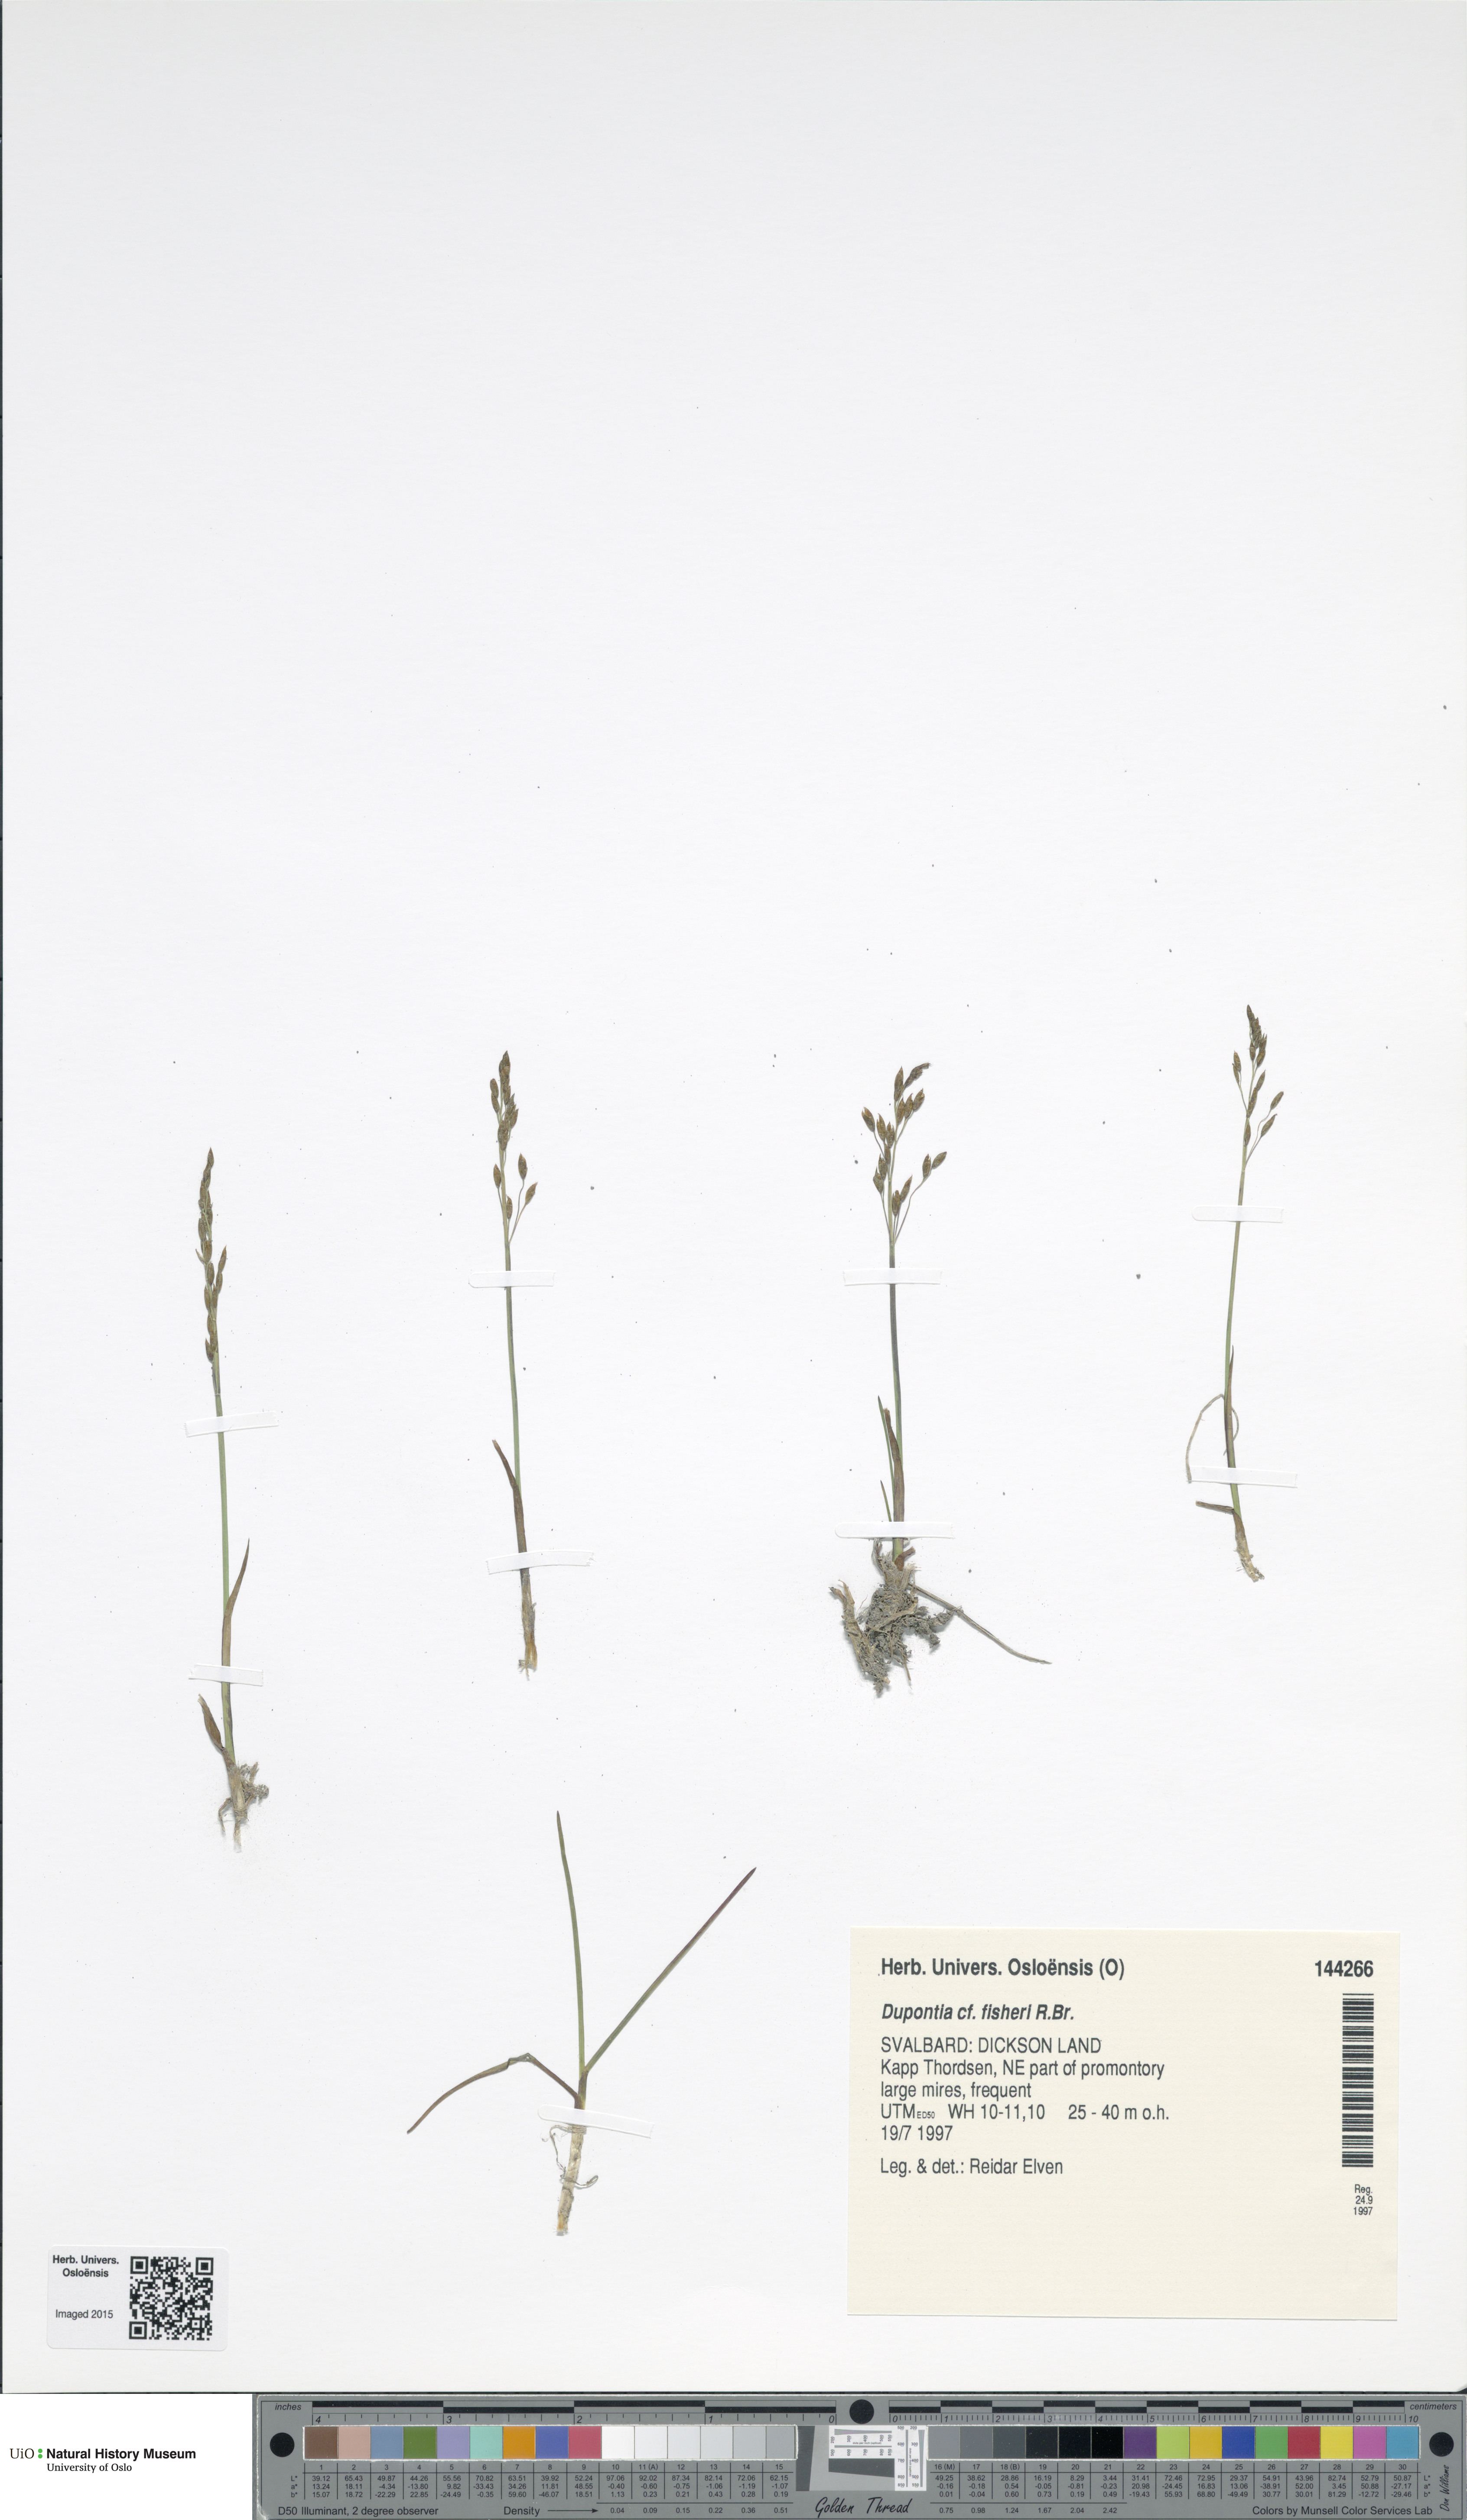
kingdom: Plantae
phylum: Tracheophyta
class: Liliopsida
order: Poales
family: Poaceae
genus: Dupontia
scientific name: Dupontia fisheri
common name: Tundra grass
